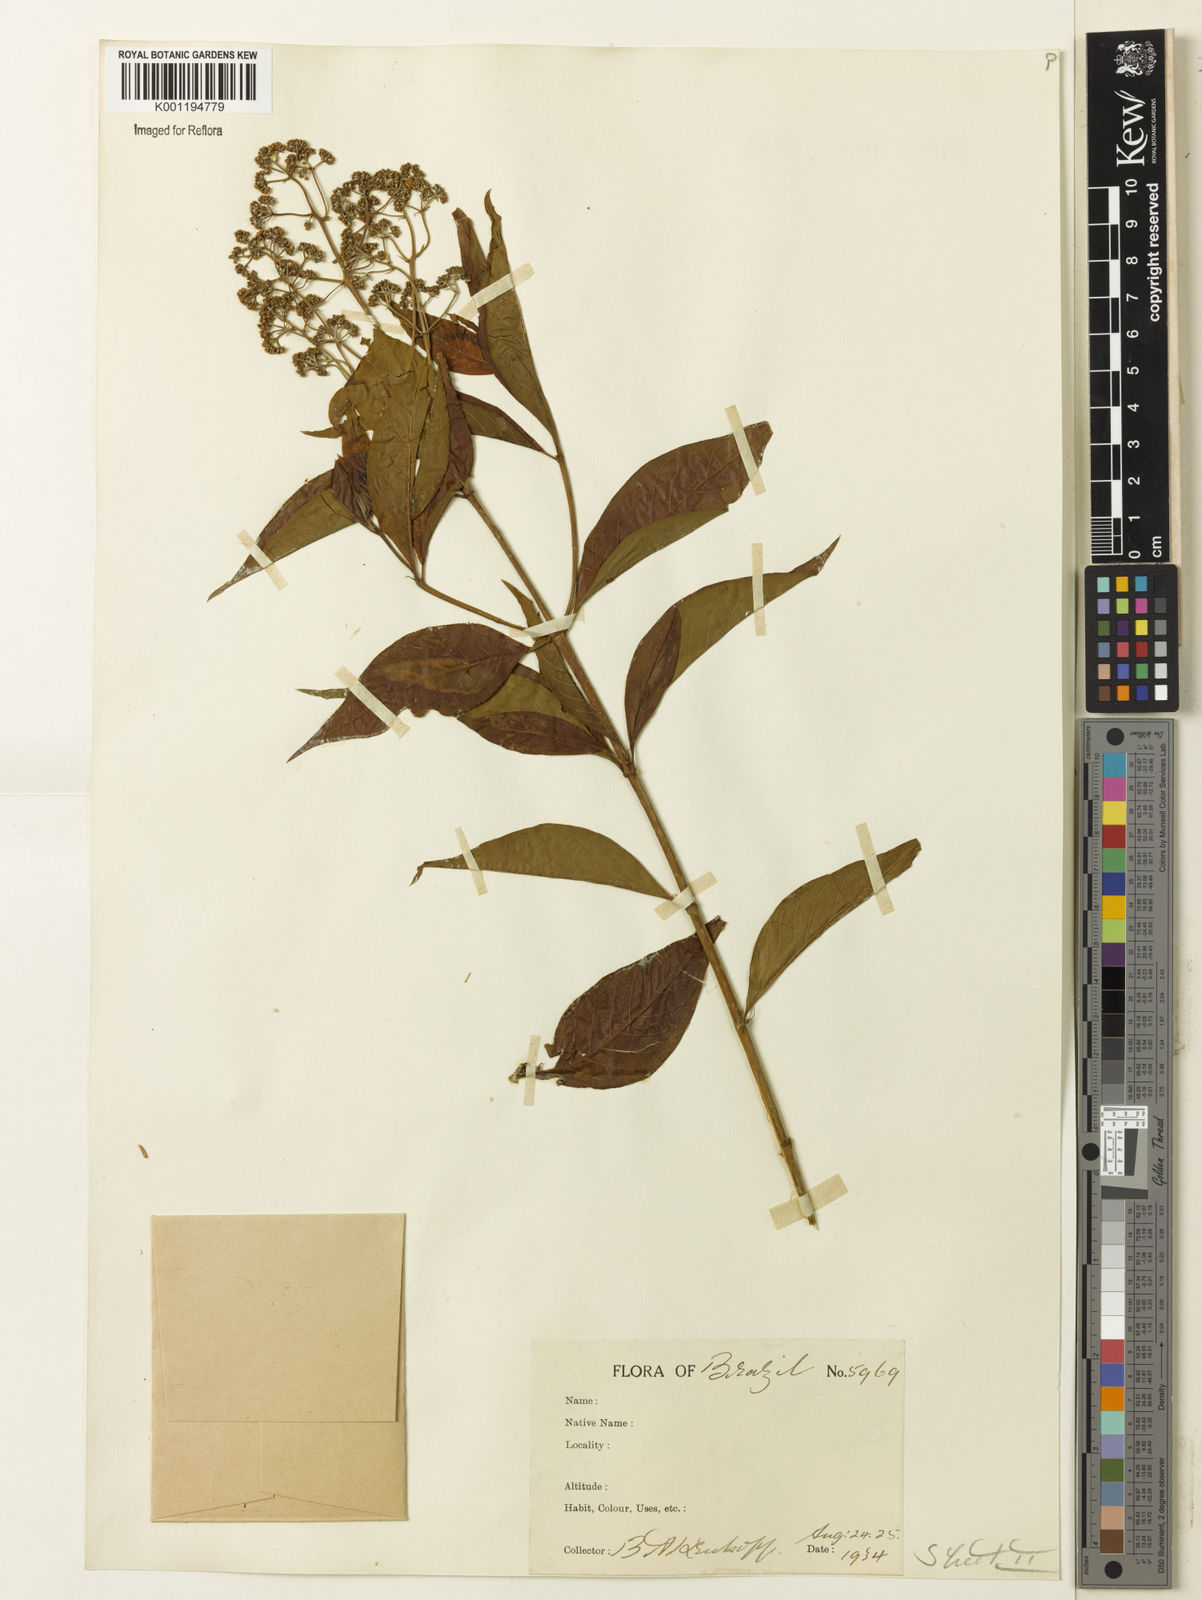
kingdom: Plantae
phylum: Tracheophyta
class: Magnoliopsida
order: Gentianales
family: Rubiaceae
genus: Machaonia
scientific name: Machaonia brasiliensis
